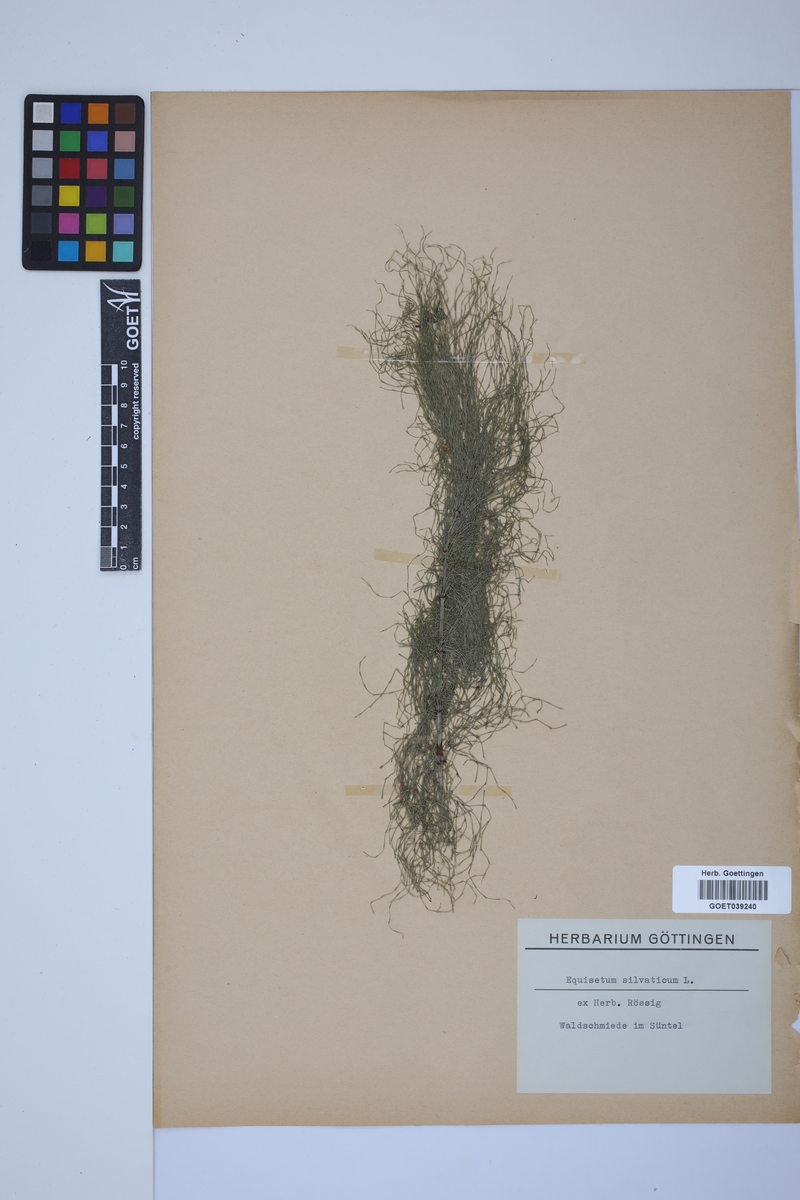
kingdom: Plantae
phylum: Tracheophyta
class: Polypodiopsida
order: Equisetales
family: Equisetaceae
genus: Equisetum
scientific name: Equisetum sylvaticum
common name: Wood horsetail
